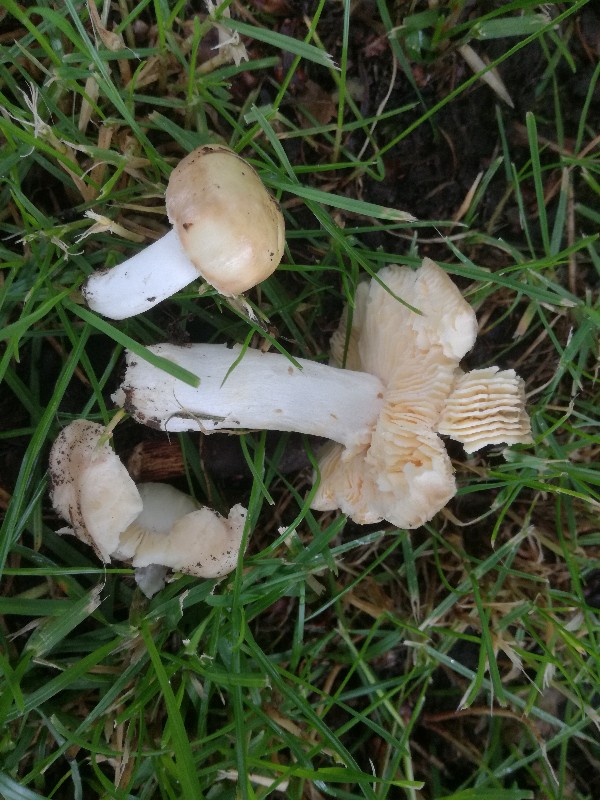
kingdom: Fungi
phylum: Basidiomycota
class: Agaricomycetes
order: Russulales
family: Russulaceae
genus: Russula
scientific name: Russula risigallina
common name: abrikos-skørhat
